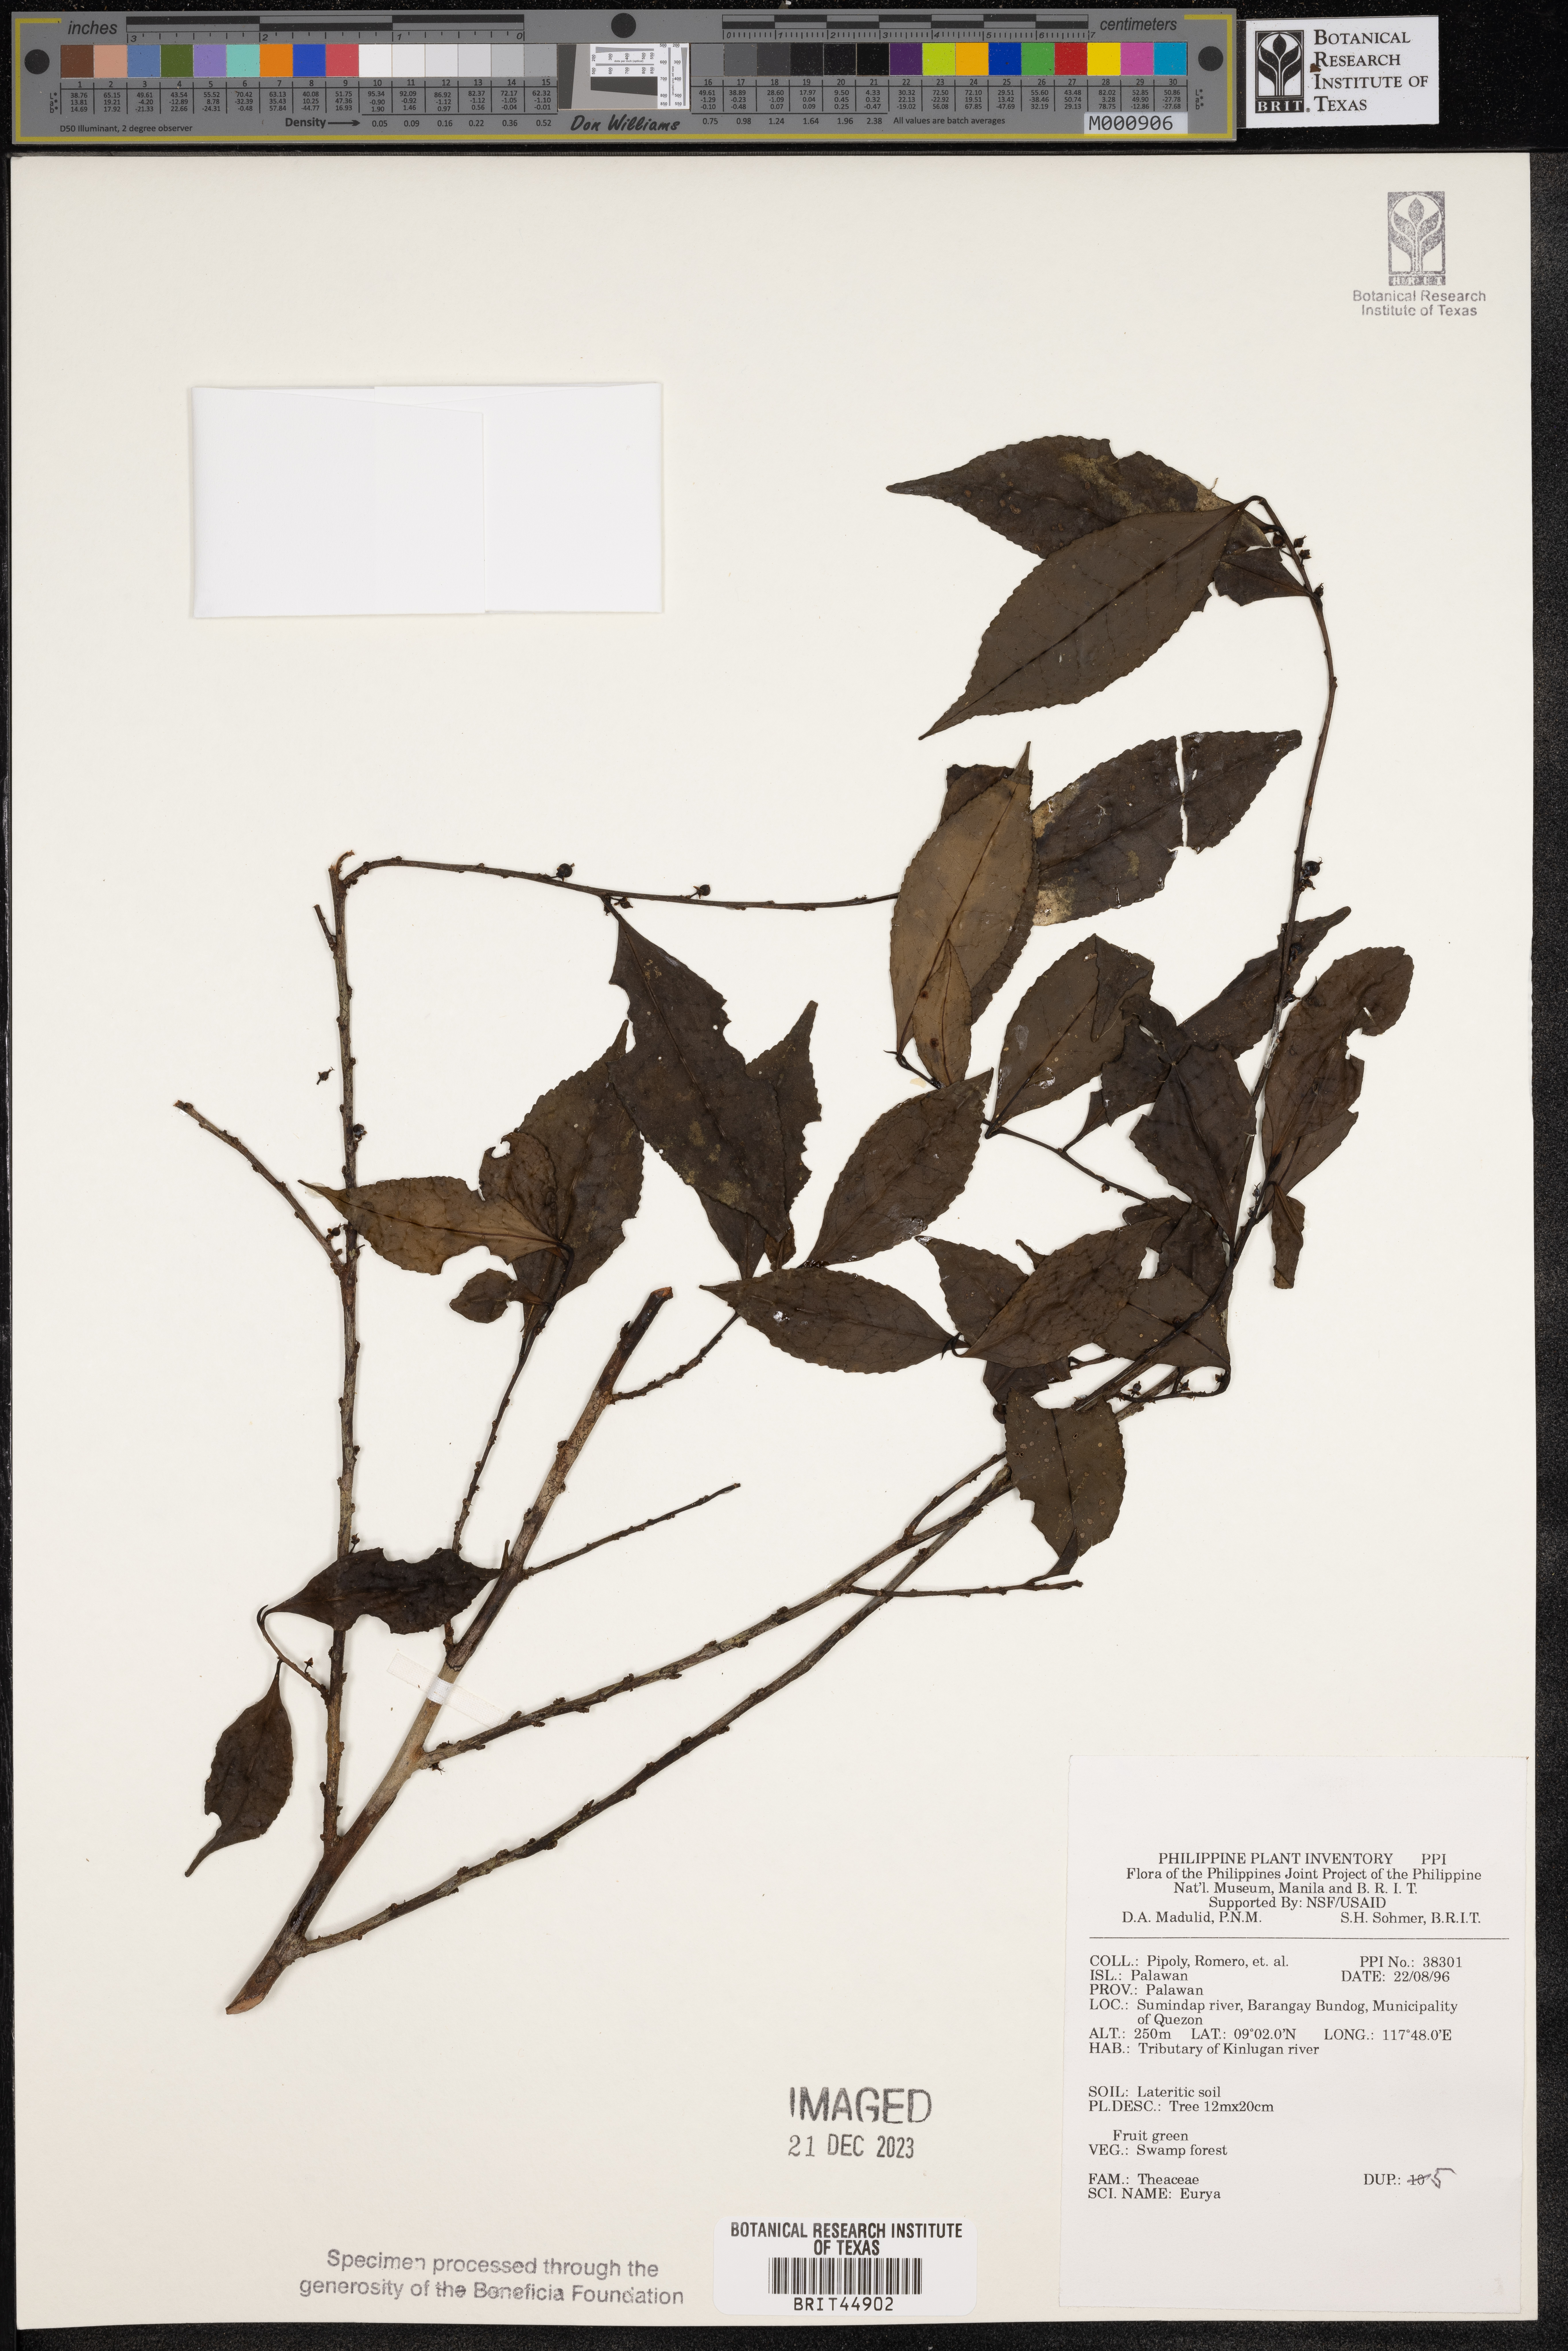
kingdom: Plantae
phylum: Tracheophyta
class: Magnoliopsida
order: Ericales
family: Pentaphylacaceae
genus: Eurya
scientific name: Eurya
